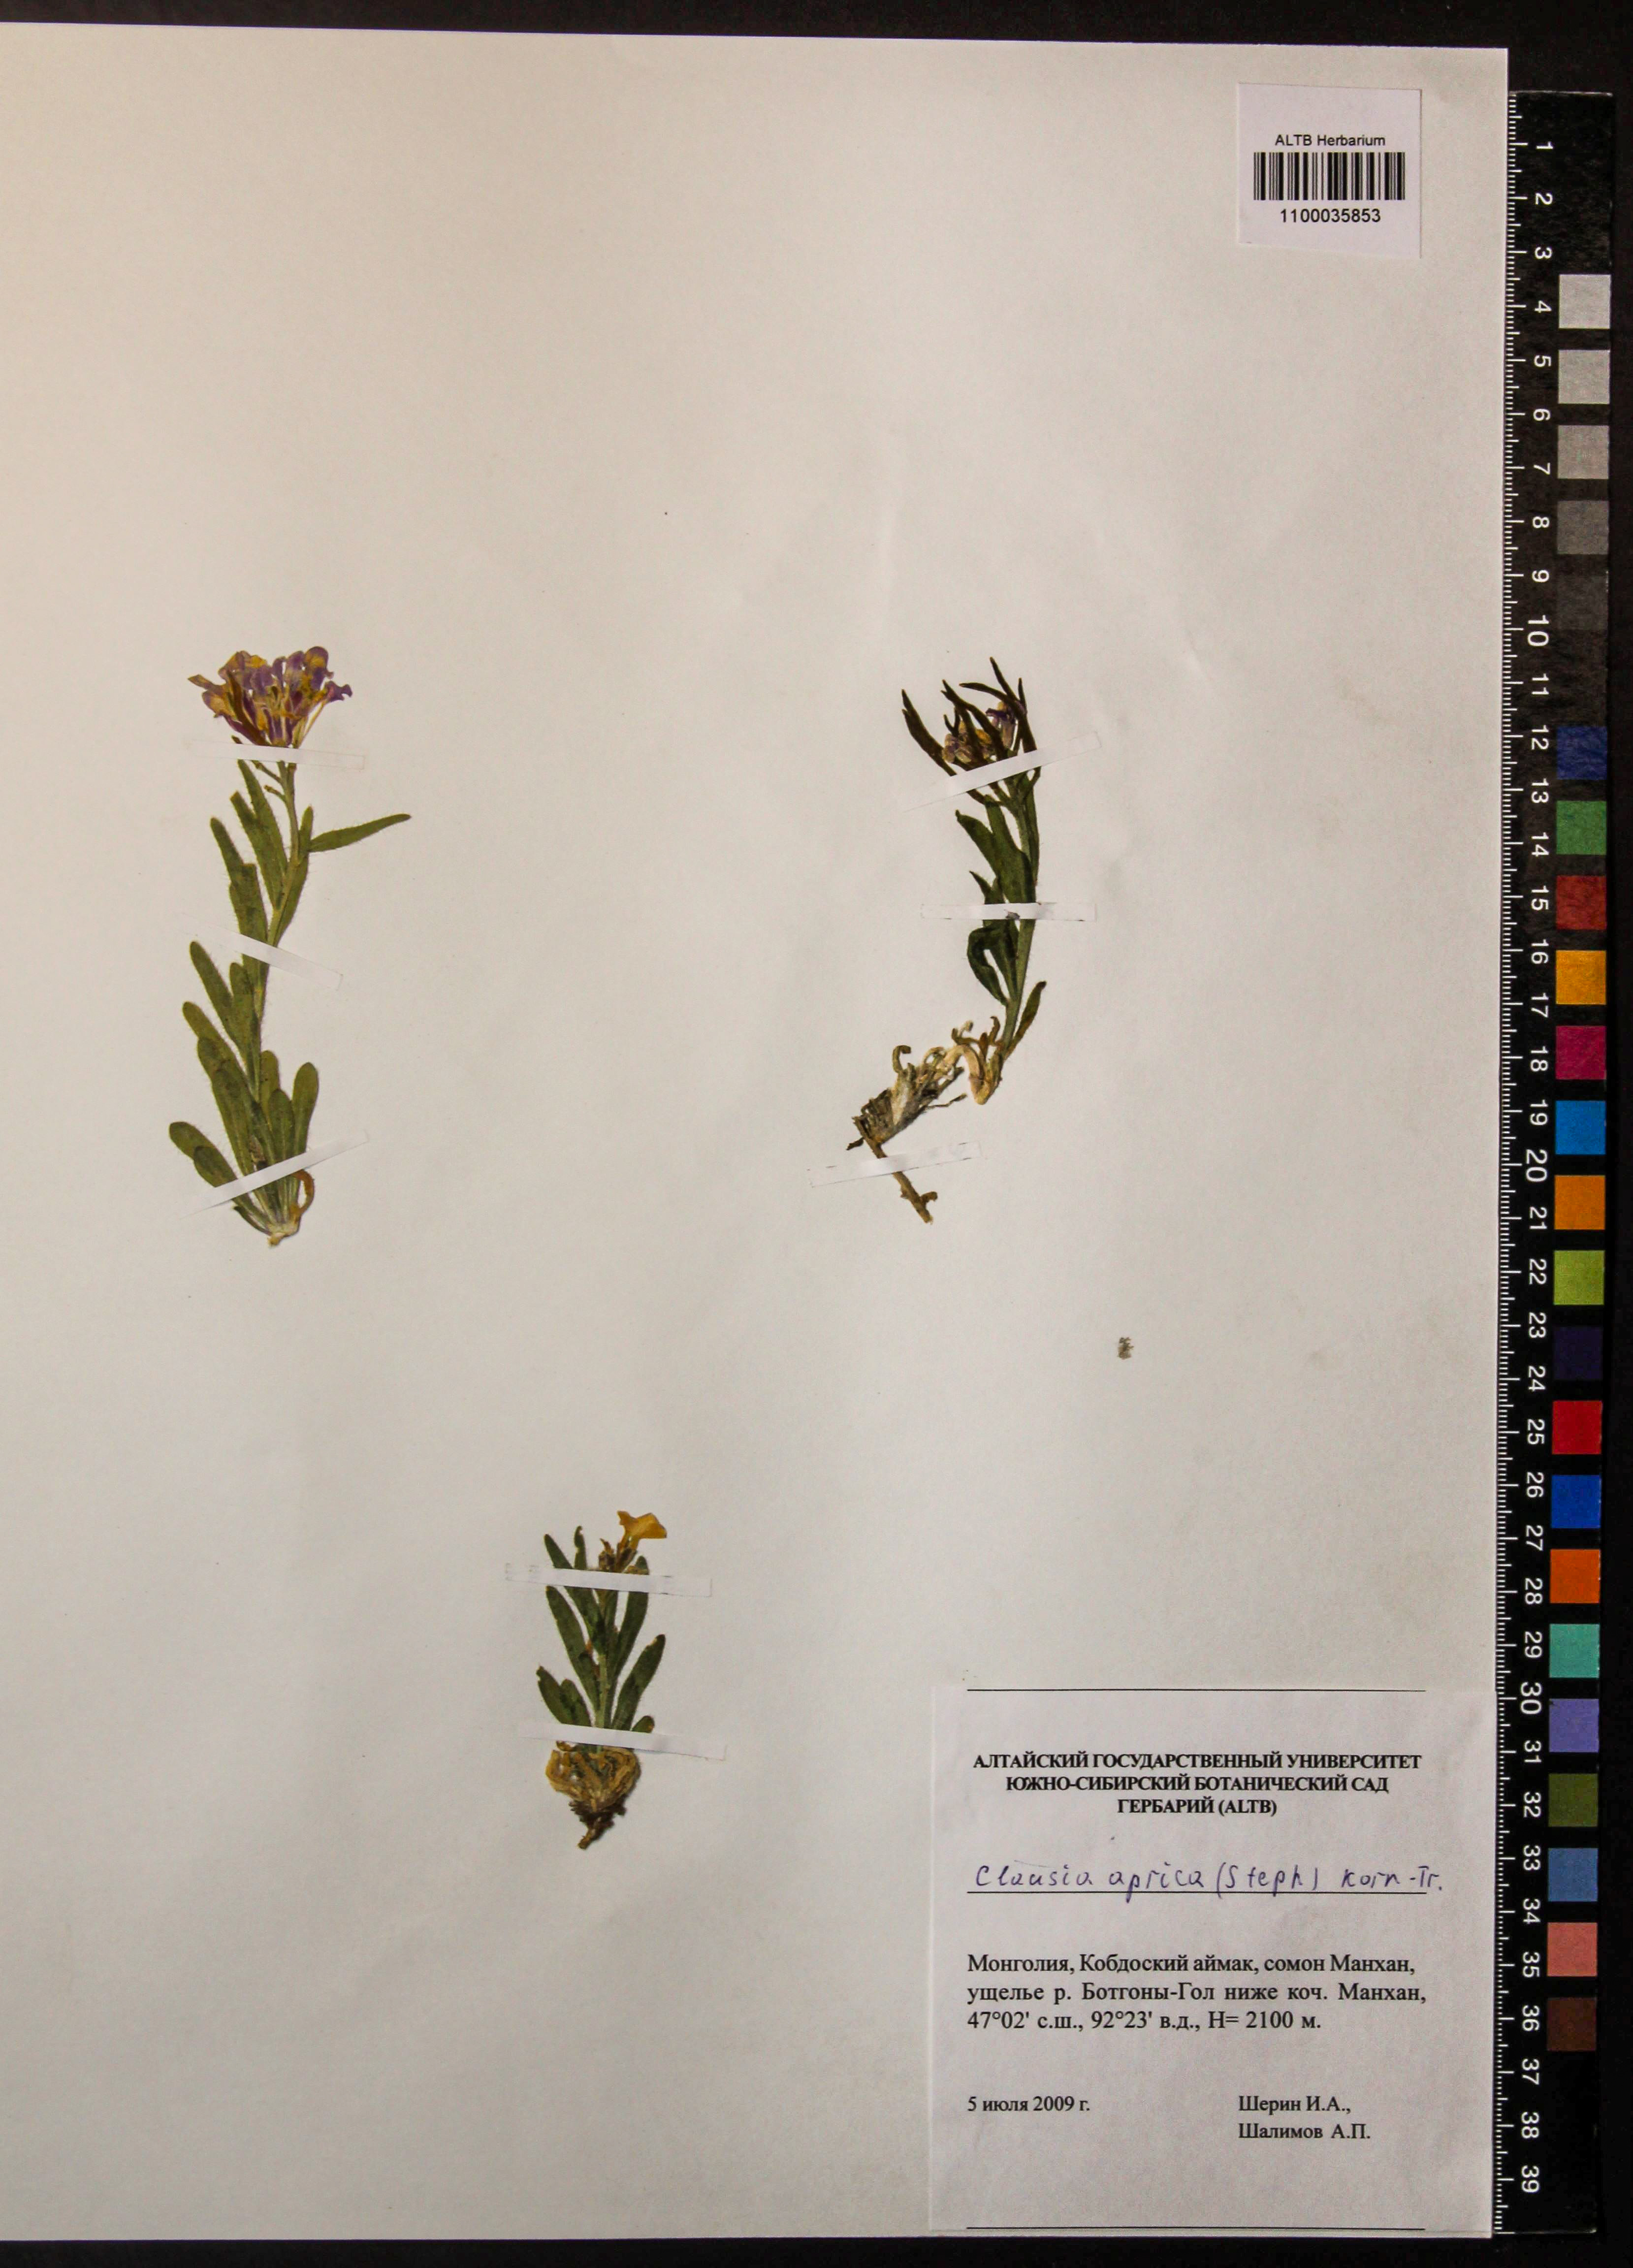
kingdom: Plantae
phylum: Tracheophyta
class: Magnoliopsida
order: Brassicales
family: Brassicaceae
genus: Clausia
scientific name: Clausia aprica
